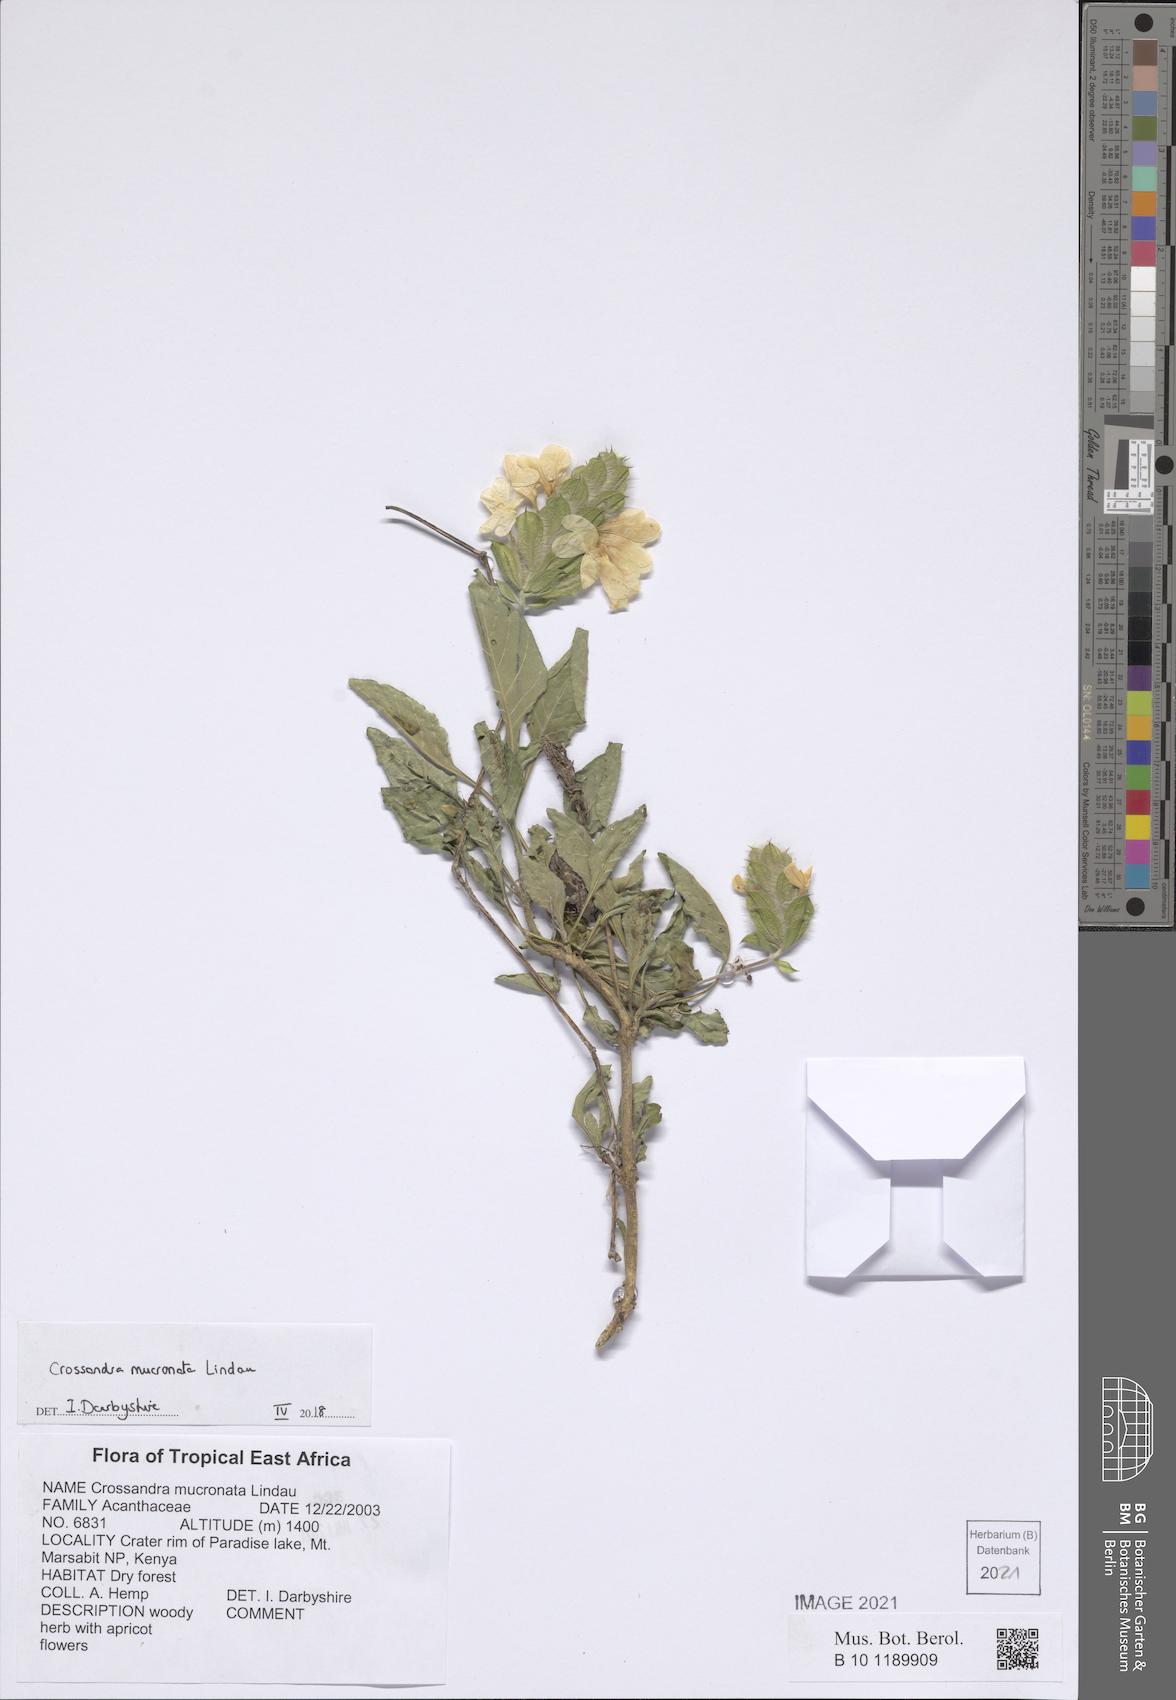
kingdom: Plantae
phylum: Tracheophyta
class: Magnoliopsida
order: Lamiales
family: Acanthaceae
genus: Crossandra
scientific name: Crossandra mucronata
